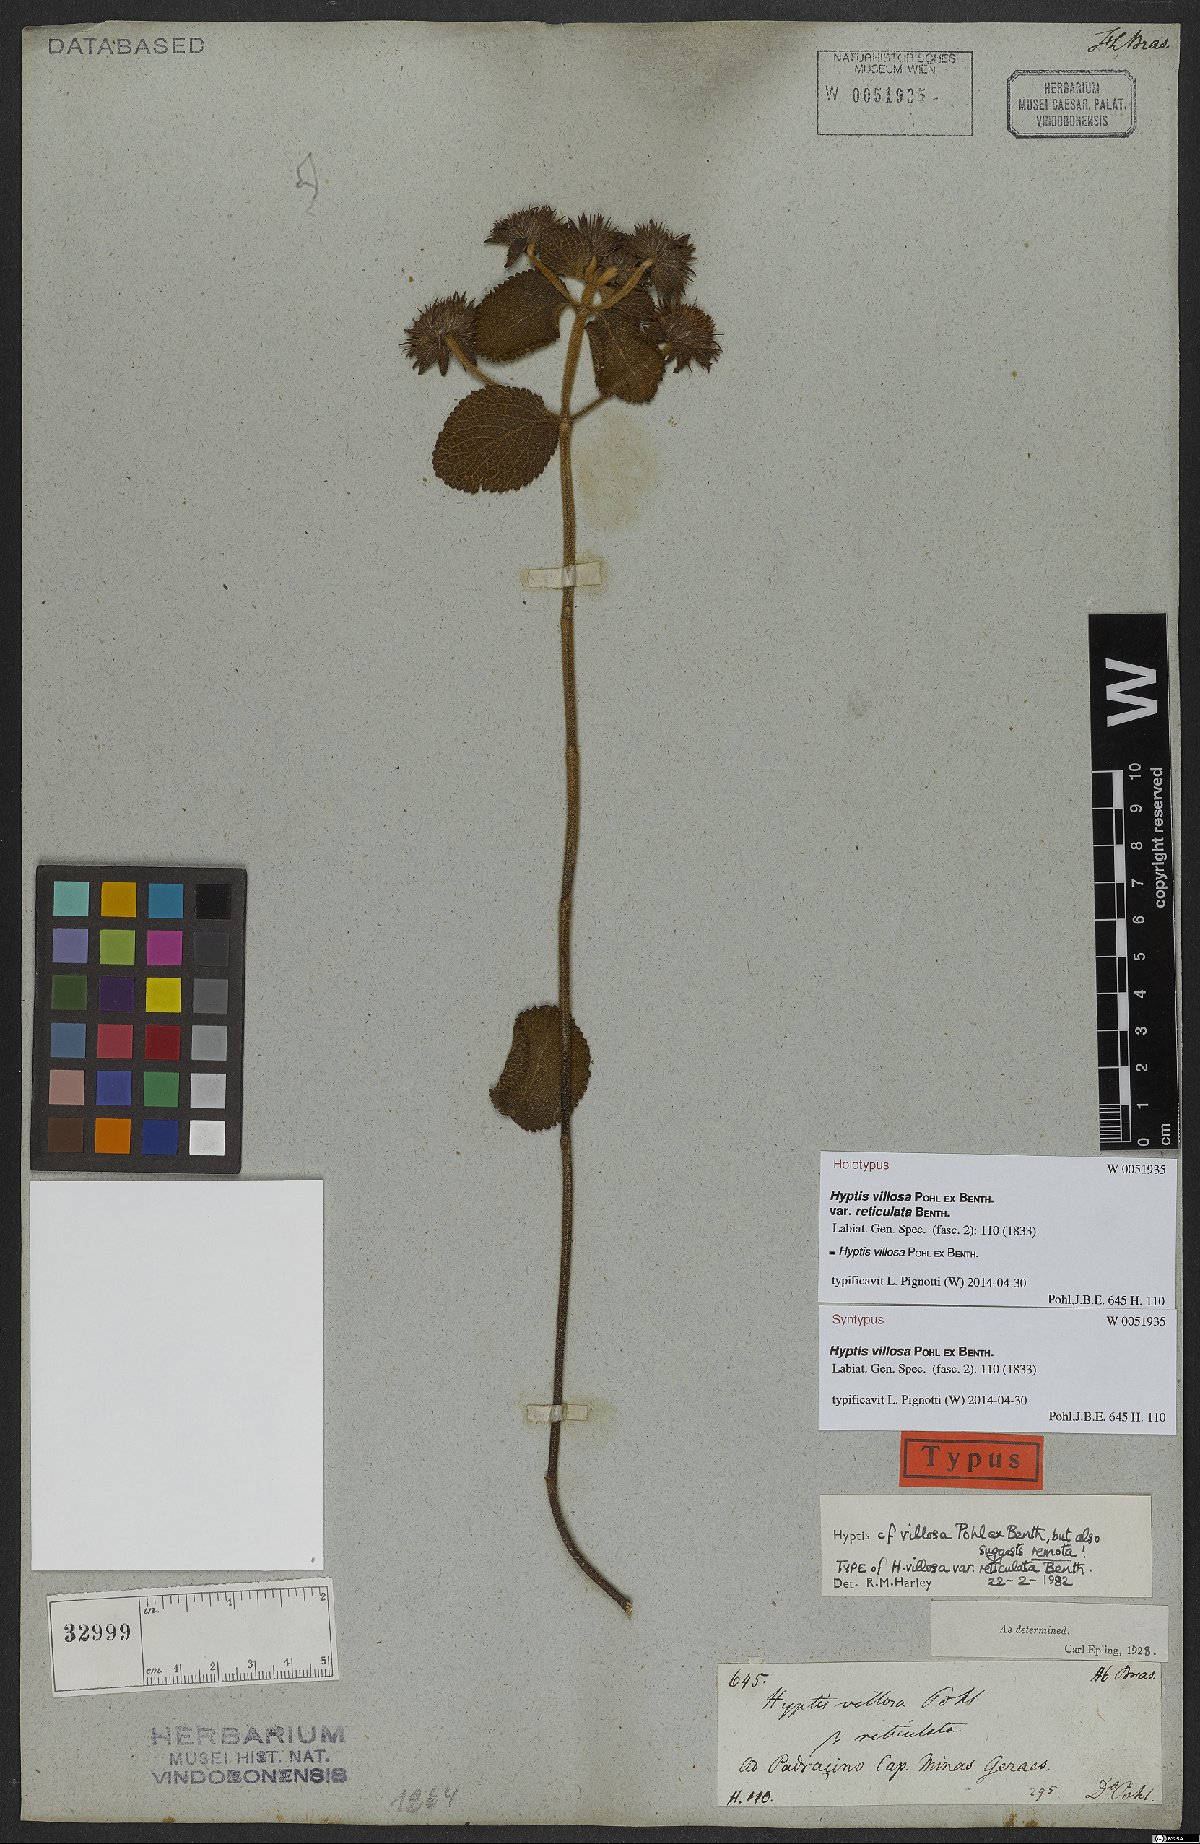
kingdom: Plantae
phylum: Tracheophyta
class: Magnoliopsida
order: Lamiales
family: Lamiaceae
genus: Hyptis
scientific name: Hyptis villosa
